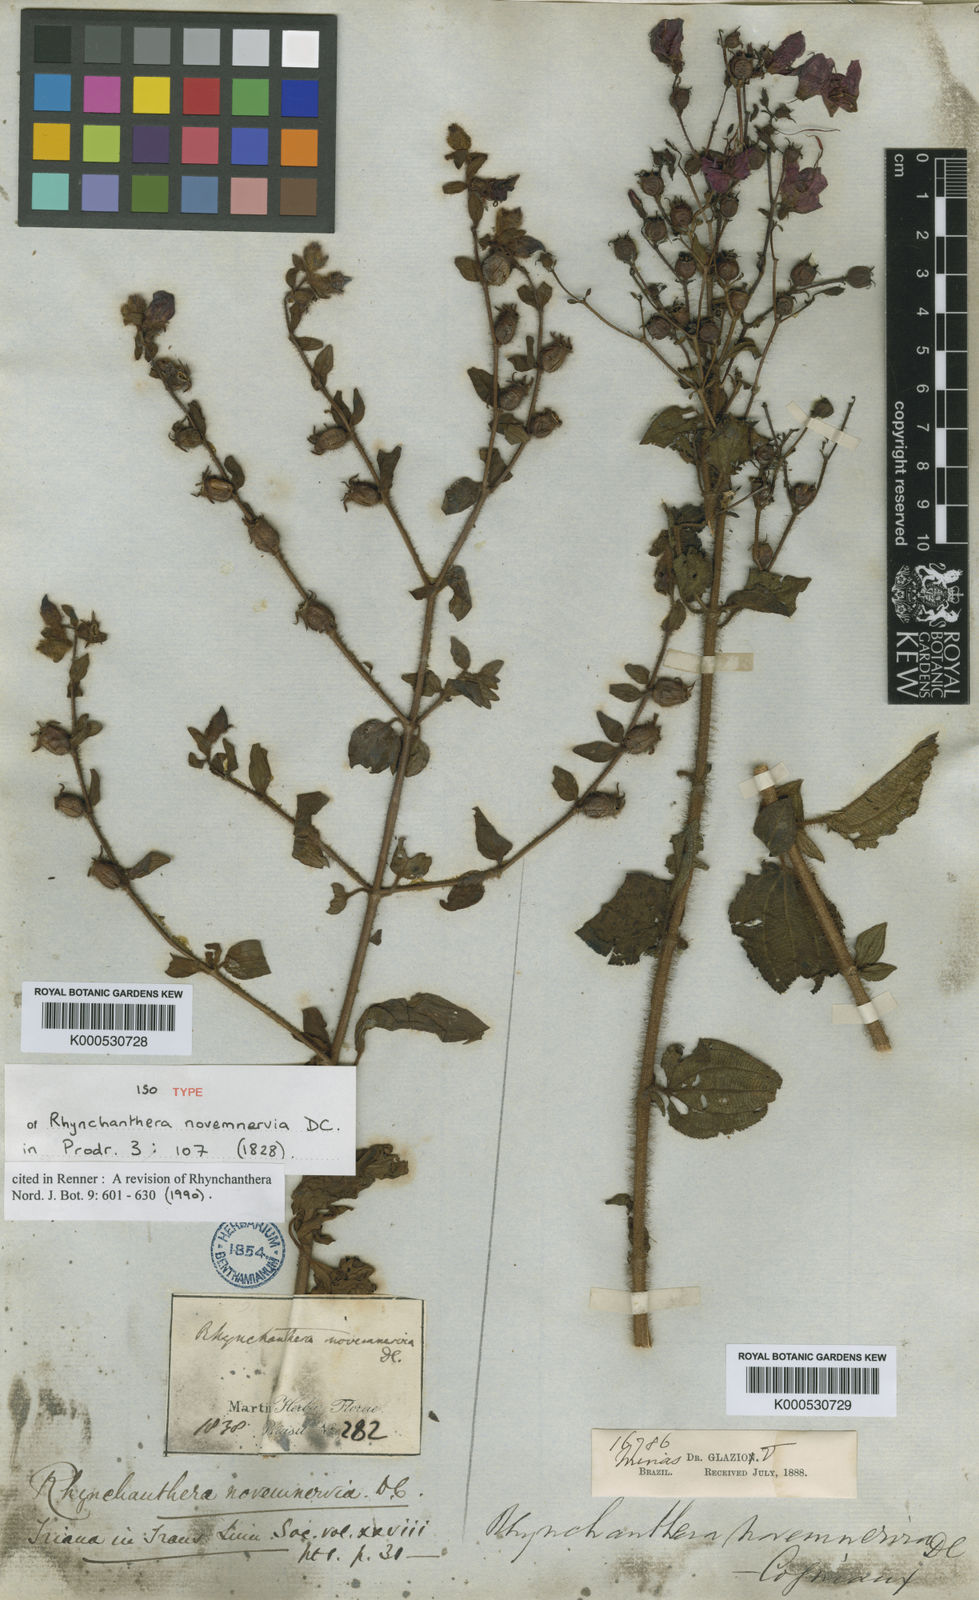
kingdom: Plantae
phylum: Tracheophyta
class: Magnoliopsida
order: Myrtales
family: Melastomataceae
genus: Rhynchanthera
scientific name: Rhynchanthera novemnervia
